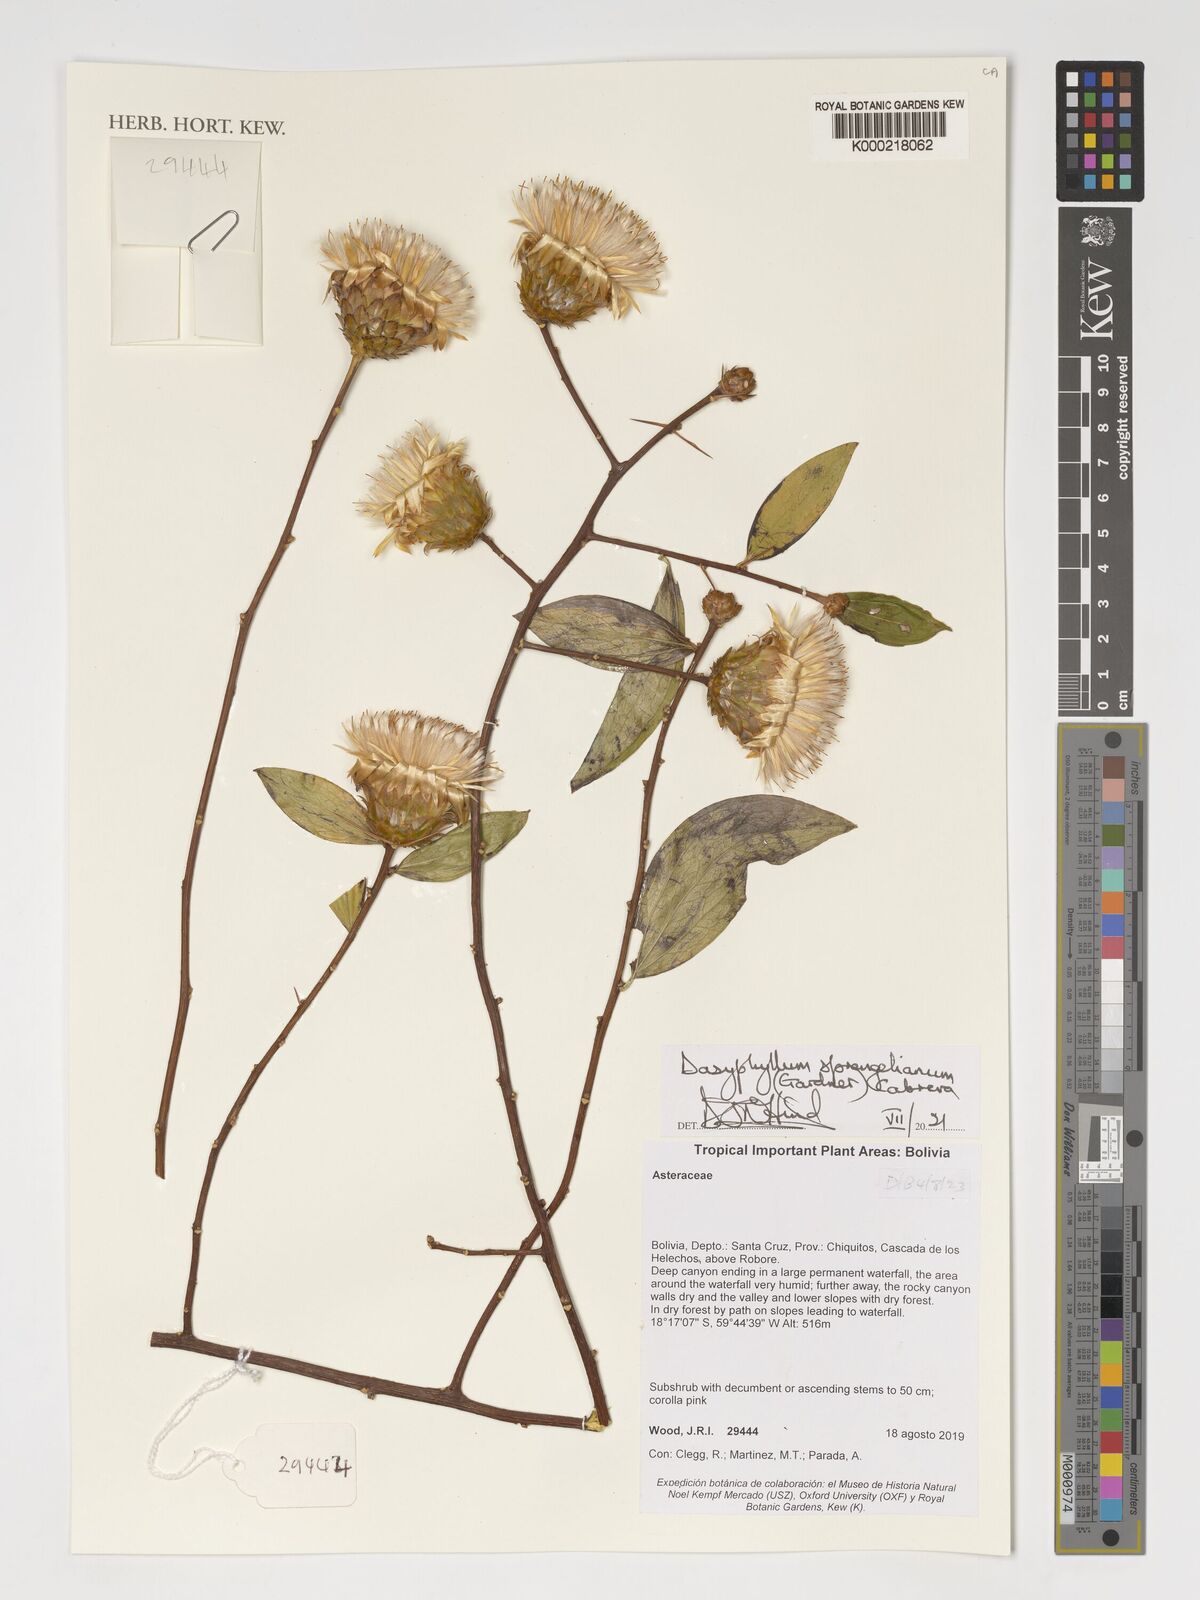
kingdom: Plantae
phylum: Tracheophyta
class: Magnoliopsida
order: Asterales
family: Asteraceae
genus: Dasyphyllum
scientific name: Dasyphyllum sprengelianum
